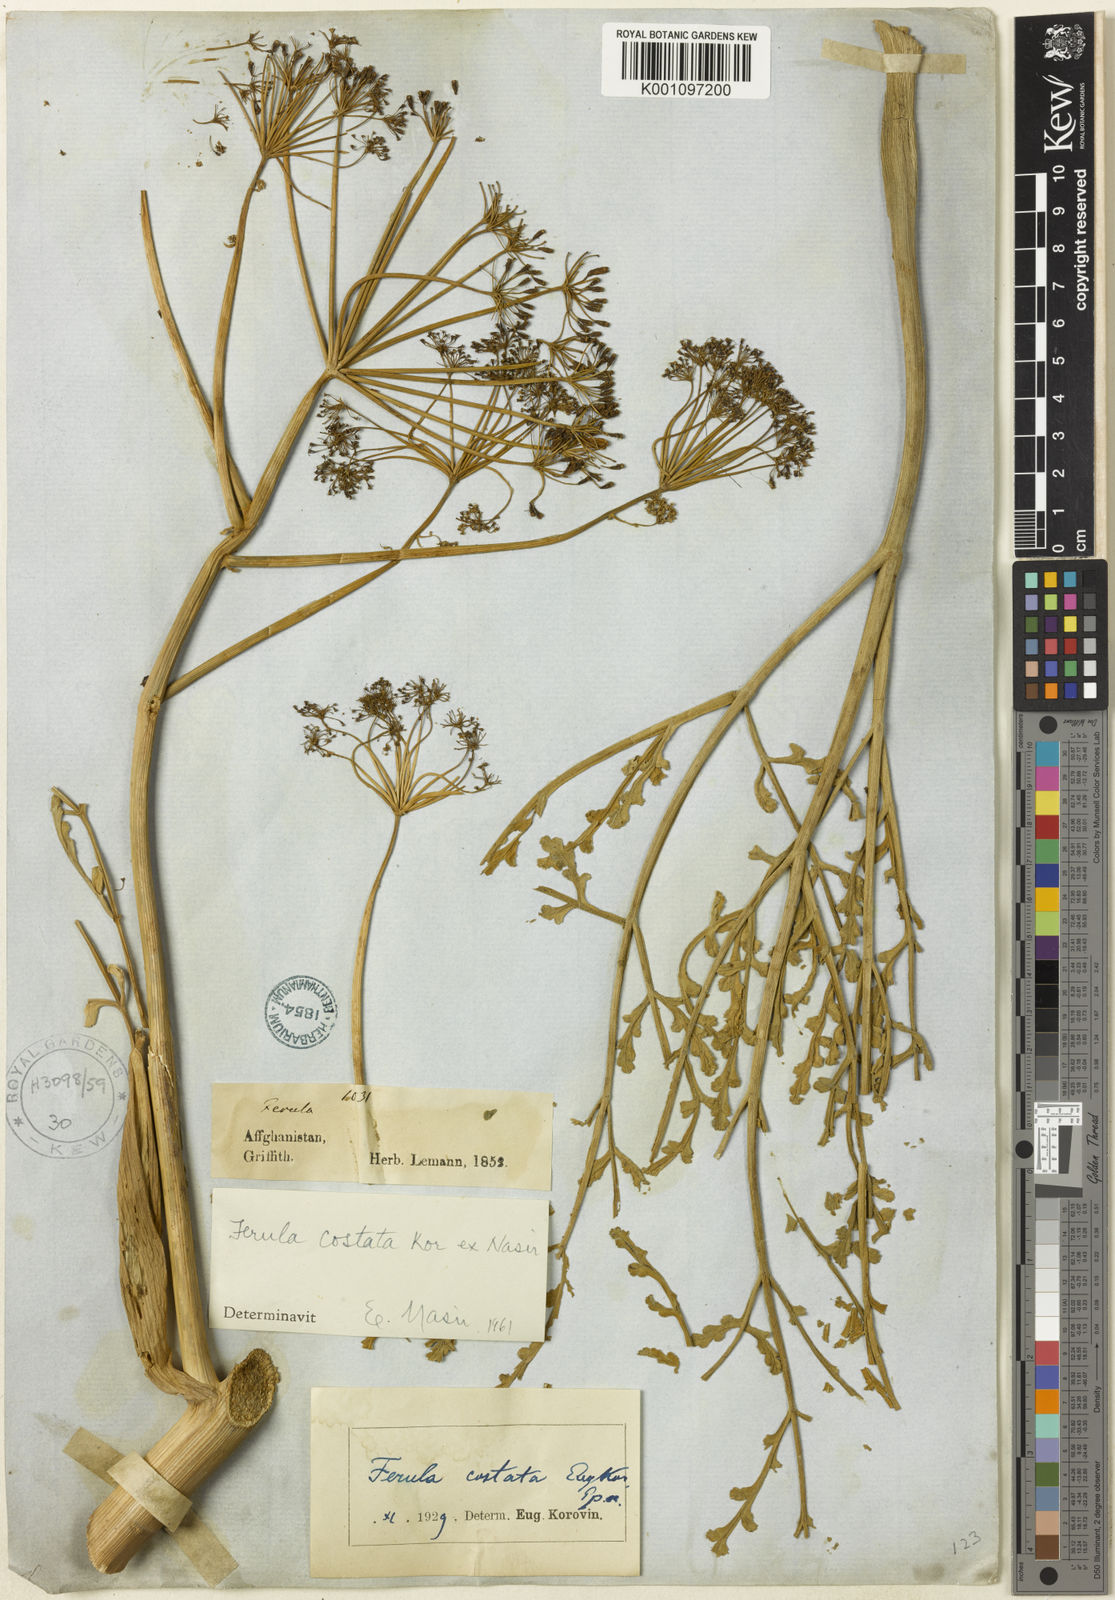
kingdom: Plantae
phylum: Tracheophyta
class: Magnoliopsida
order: Apiales
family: Apiaceae
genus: Ferula
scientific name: Ferula costata
